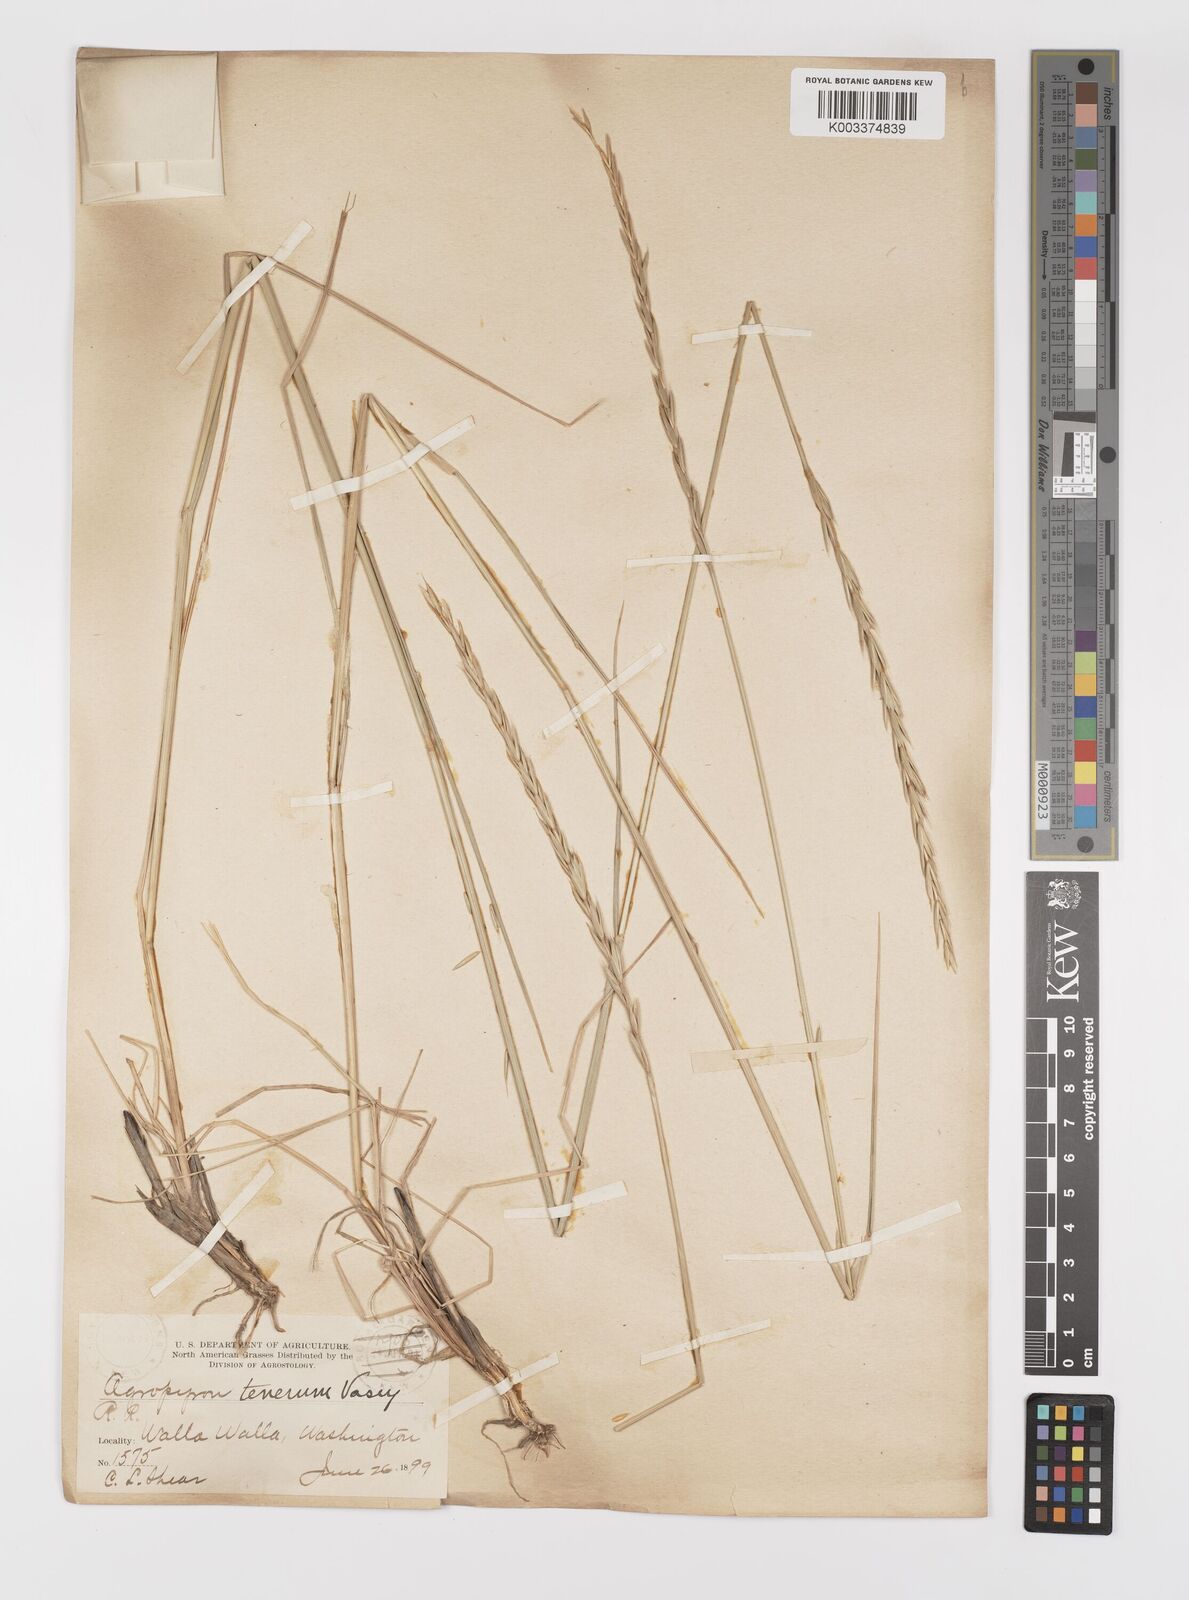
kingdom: Plantae
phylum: Tracheophyta
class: Liliopsida
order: Poales
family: Poaceae
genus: Elymus
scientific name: Elymus violaceus
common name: Arctic wheatgrass
